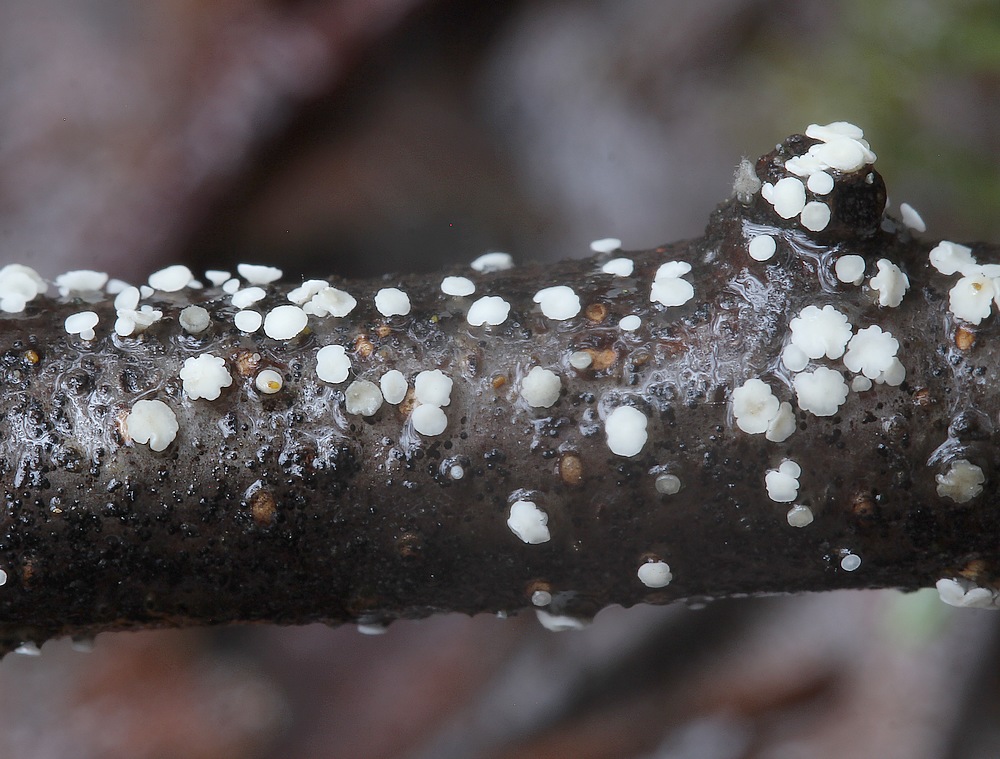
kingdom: Fungi
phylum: Ascomycota
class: Leotiomycetes
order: Helotiales
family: Pezizellaceae
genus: Calycina
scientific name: Calycina
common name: gulskive
